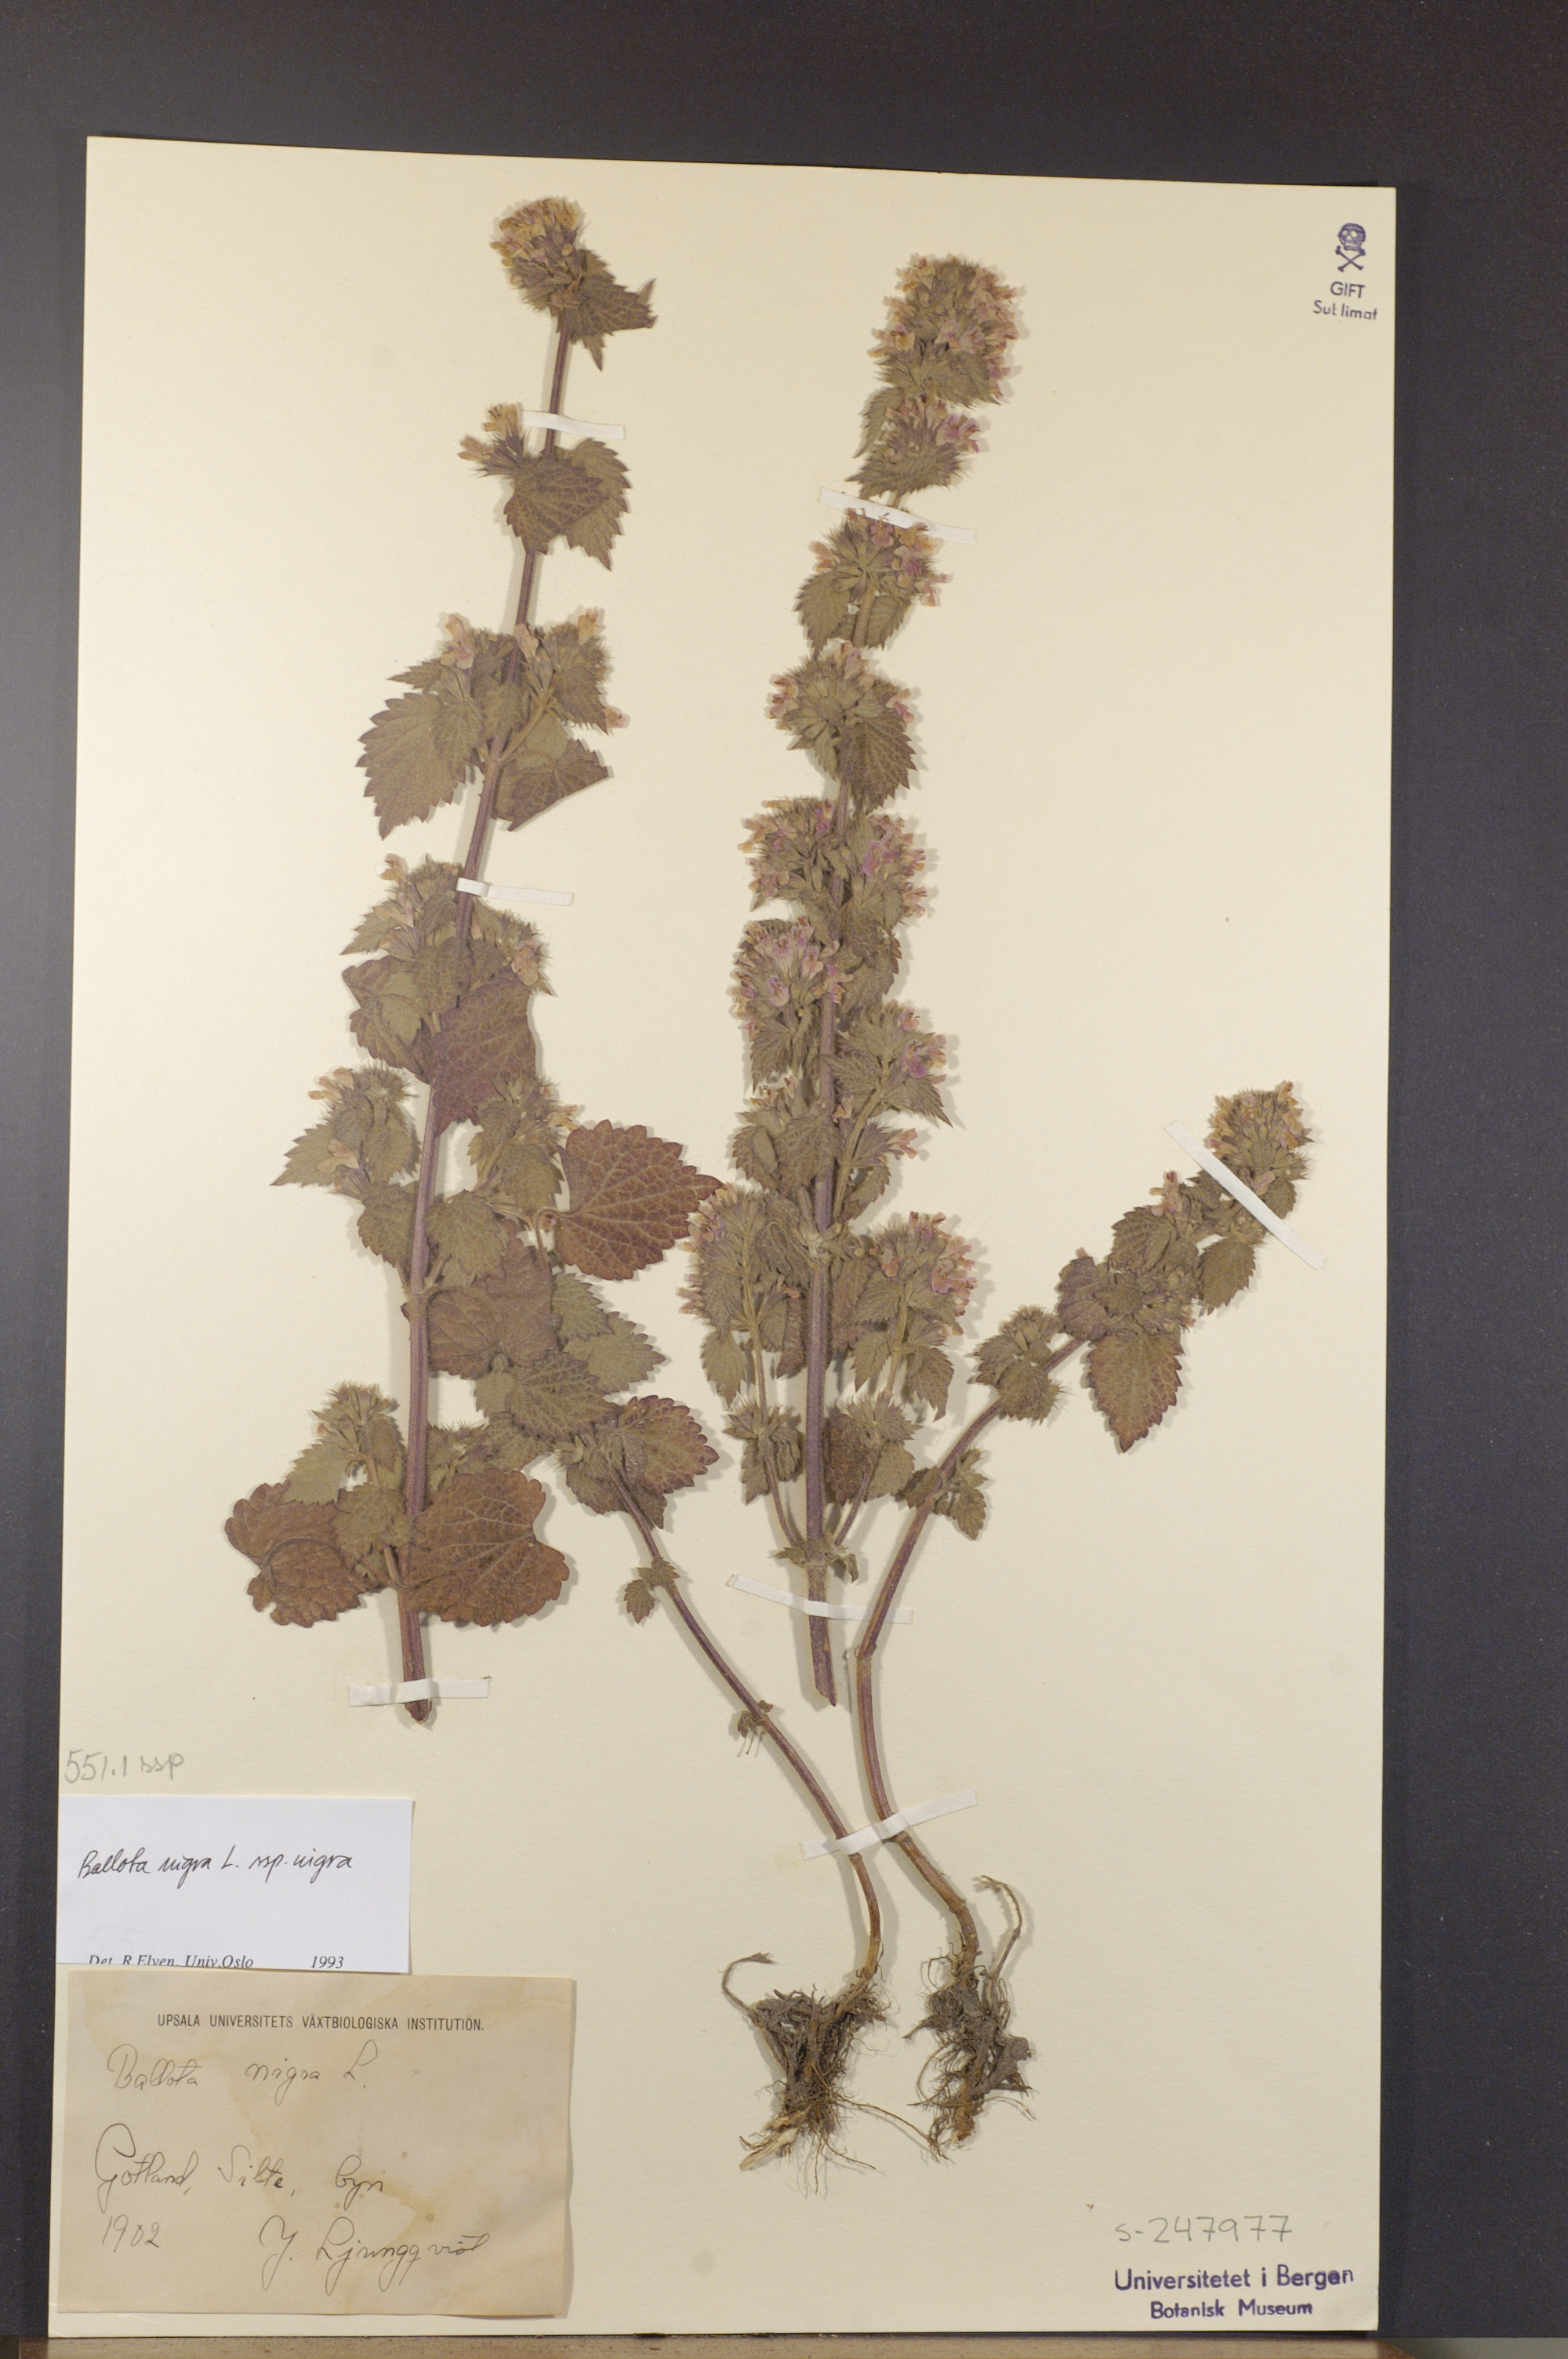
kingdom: Plantae
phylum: Tracheophyta
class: Magnoliopsida
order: Lamiales
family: Lamiaceae
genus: Ballota
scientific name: Ballota nigra
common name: Black horehound
